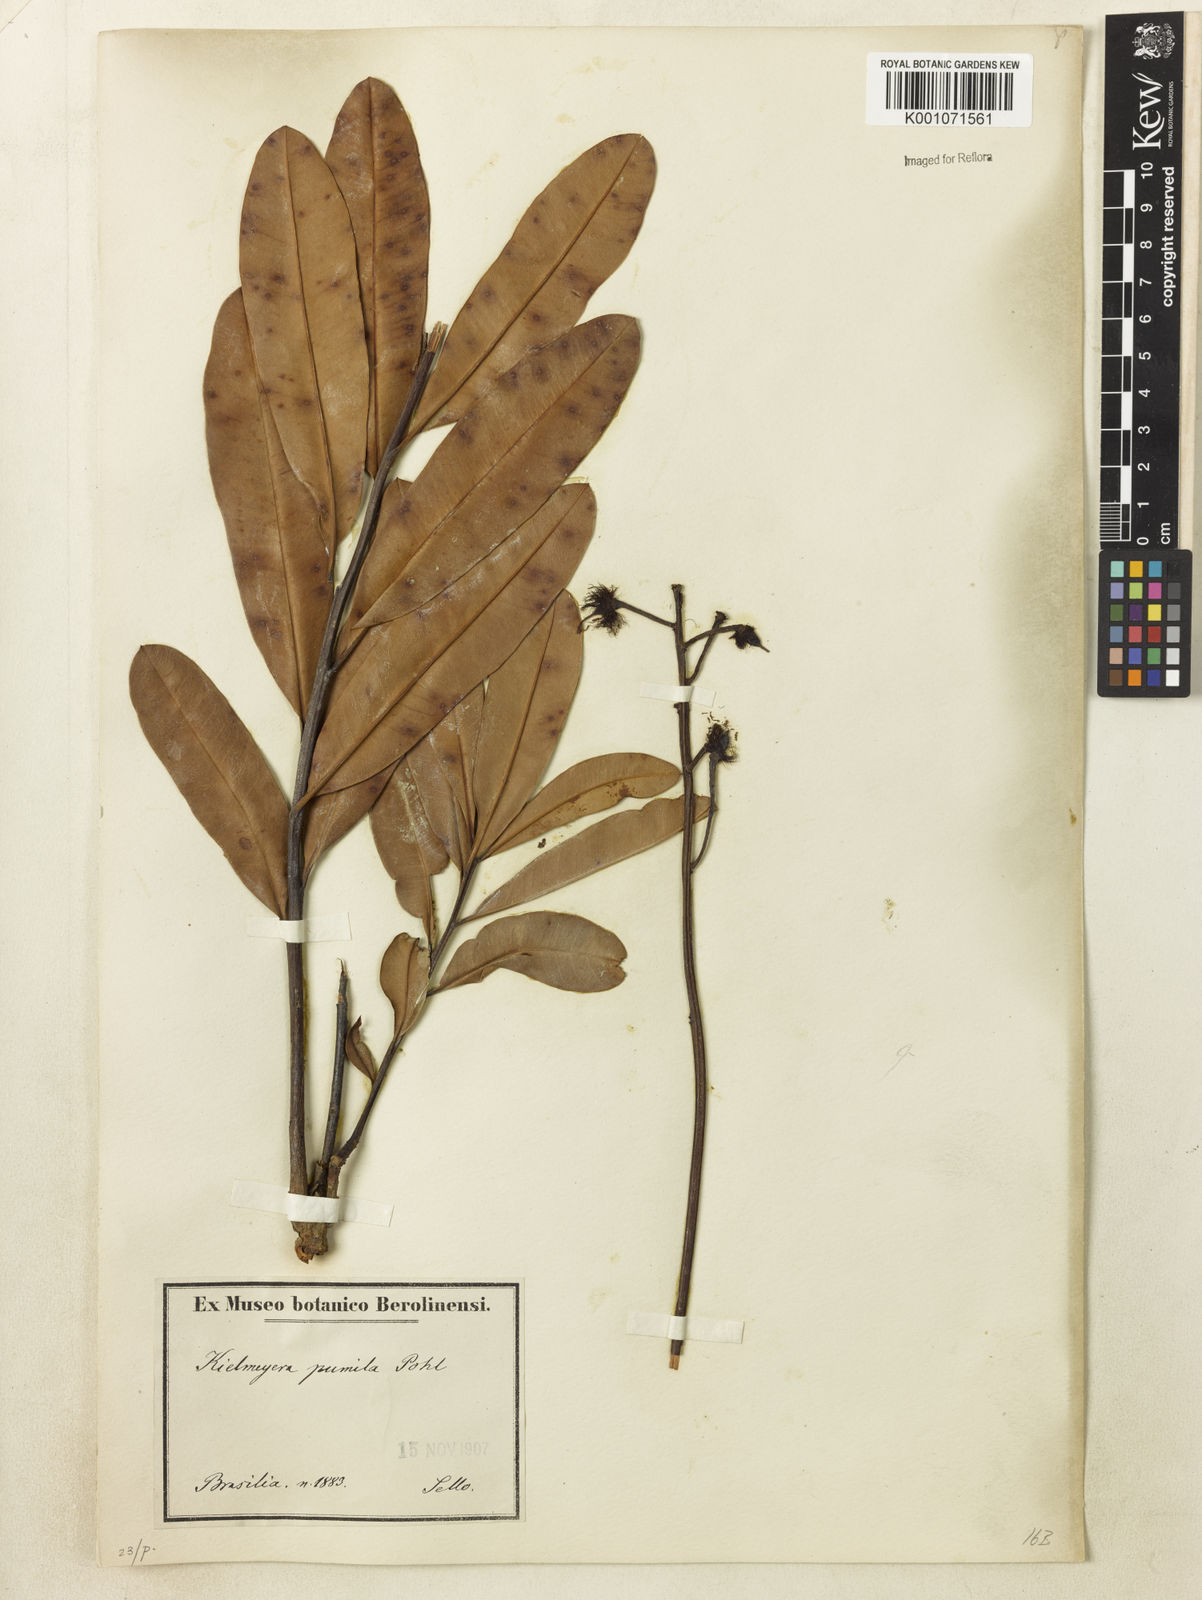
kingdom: Plantae
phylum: Tracheophyta
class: Magnoliopsida
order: Malpighiales
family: Calophyllaceae
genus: Kielmeyera
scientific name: Kielmeyera pumila
